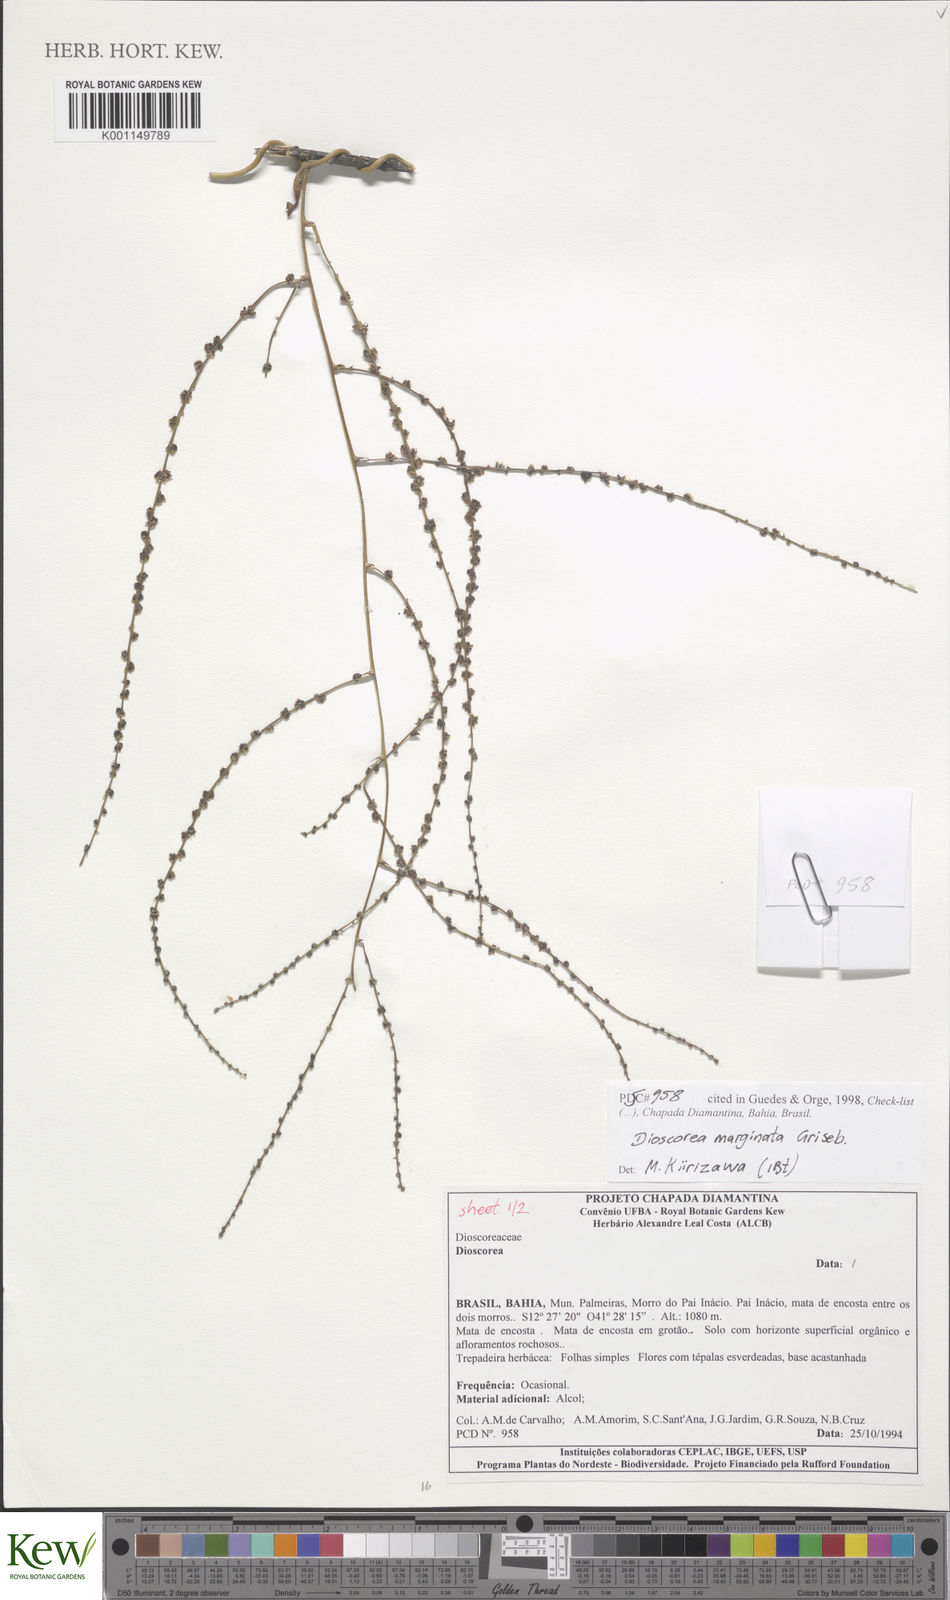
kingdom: Plantae
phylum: Tracheophyta
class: Liliopsida
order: Dioscoreales
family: Dioscoreaceae
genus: Dioscorea
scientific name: Dioscorea marginata
